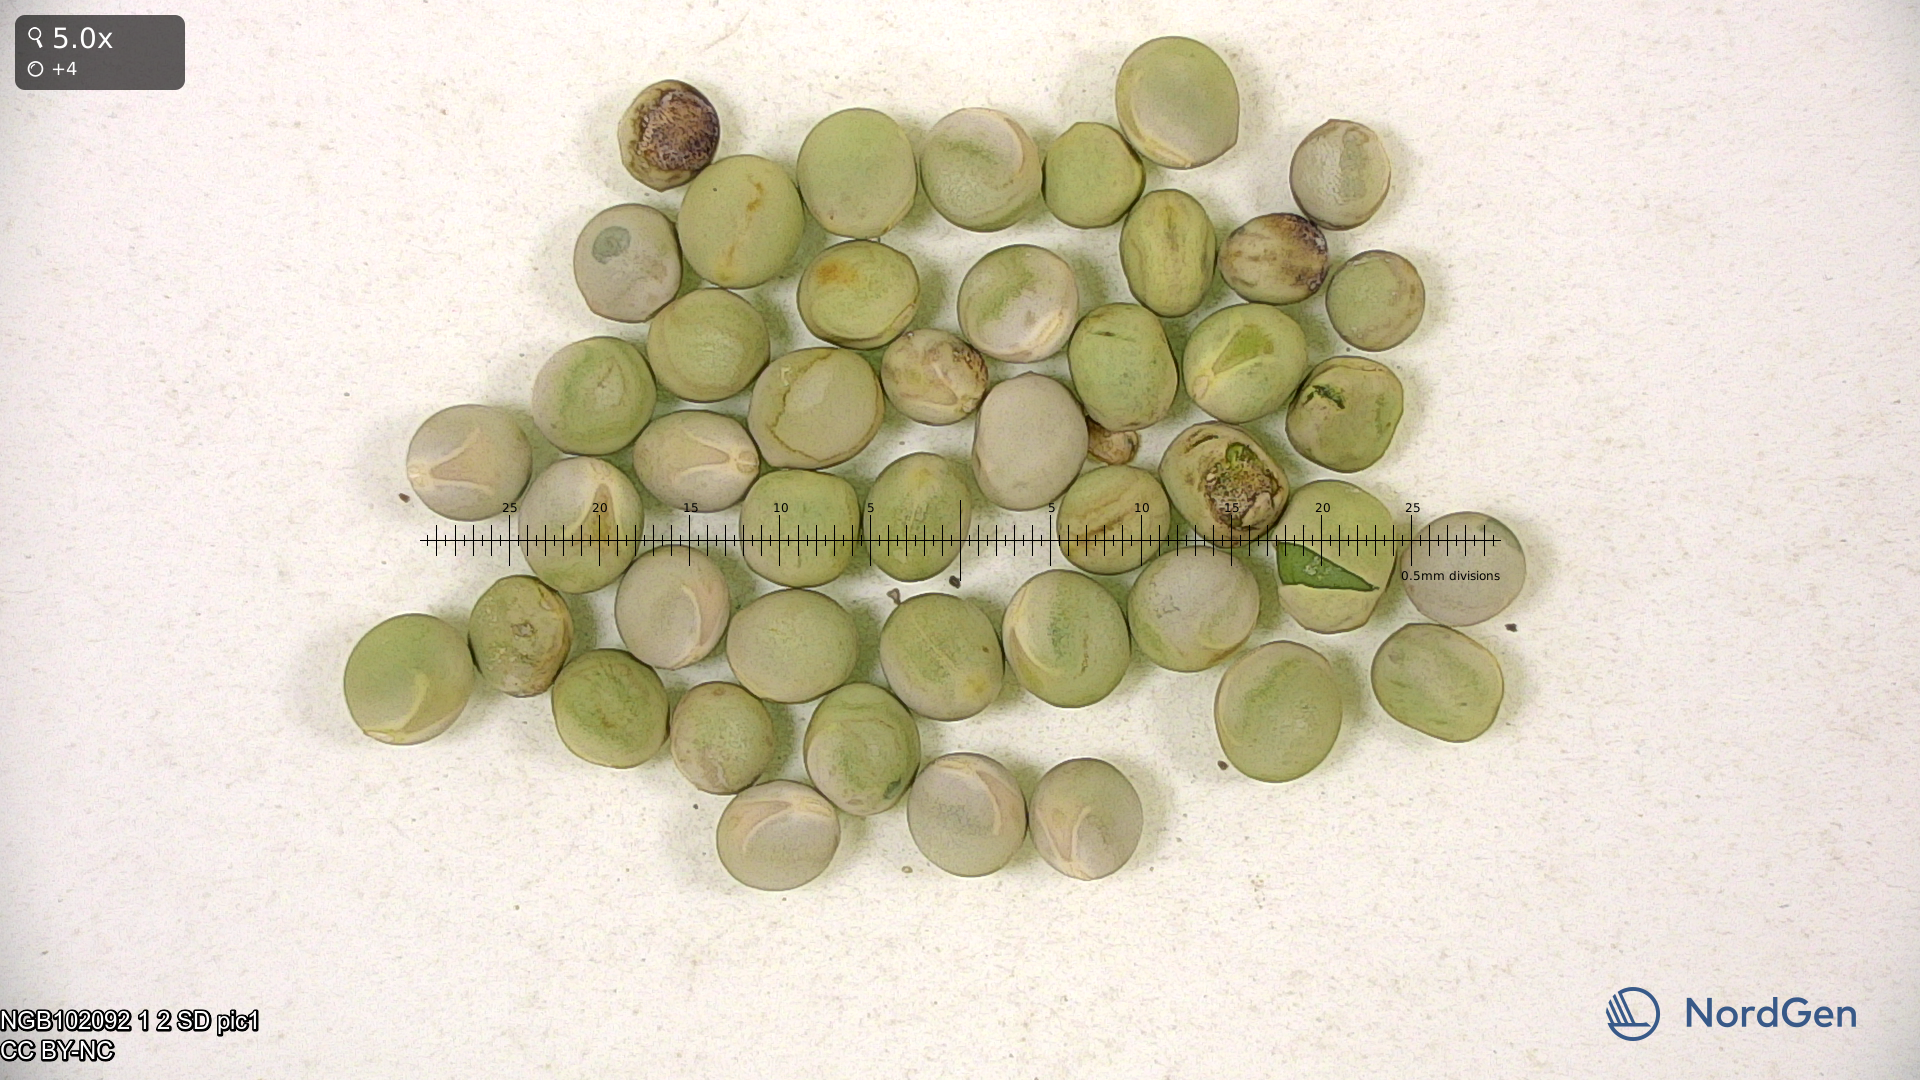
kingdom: Plantae
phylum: Tracheophyta
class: Magnoliopsida
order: Fabales
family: Fabaceae
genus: Lathyrus
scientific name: Lathyrus oleraceus
